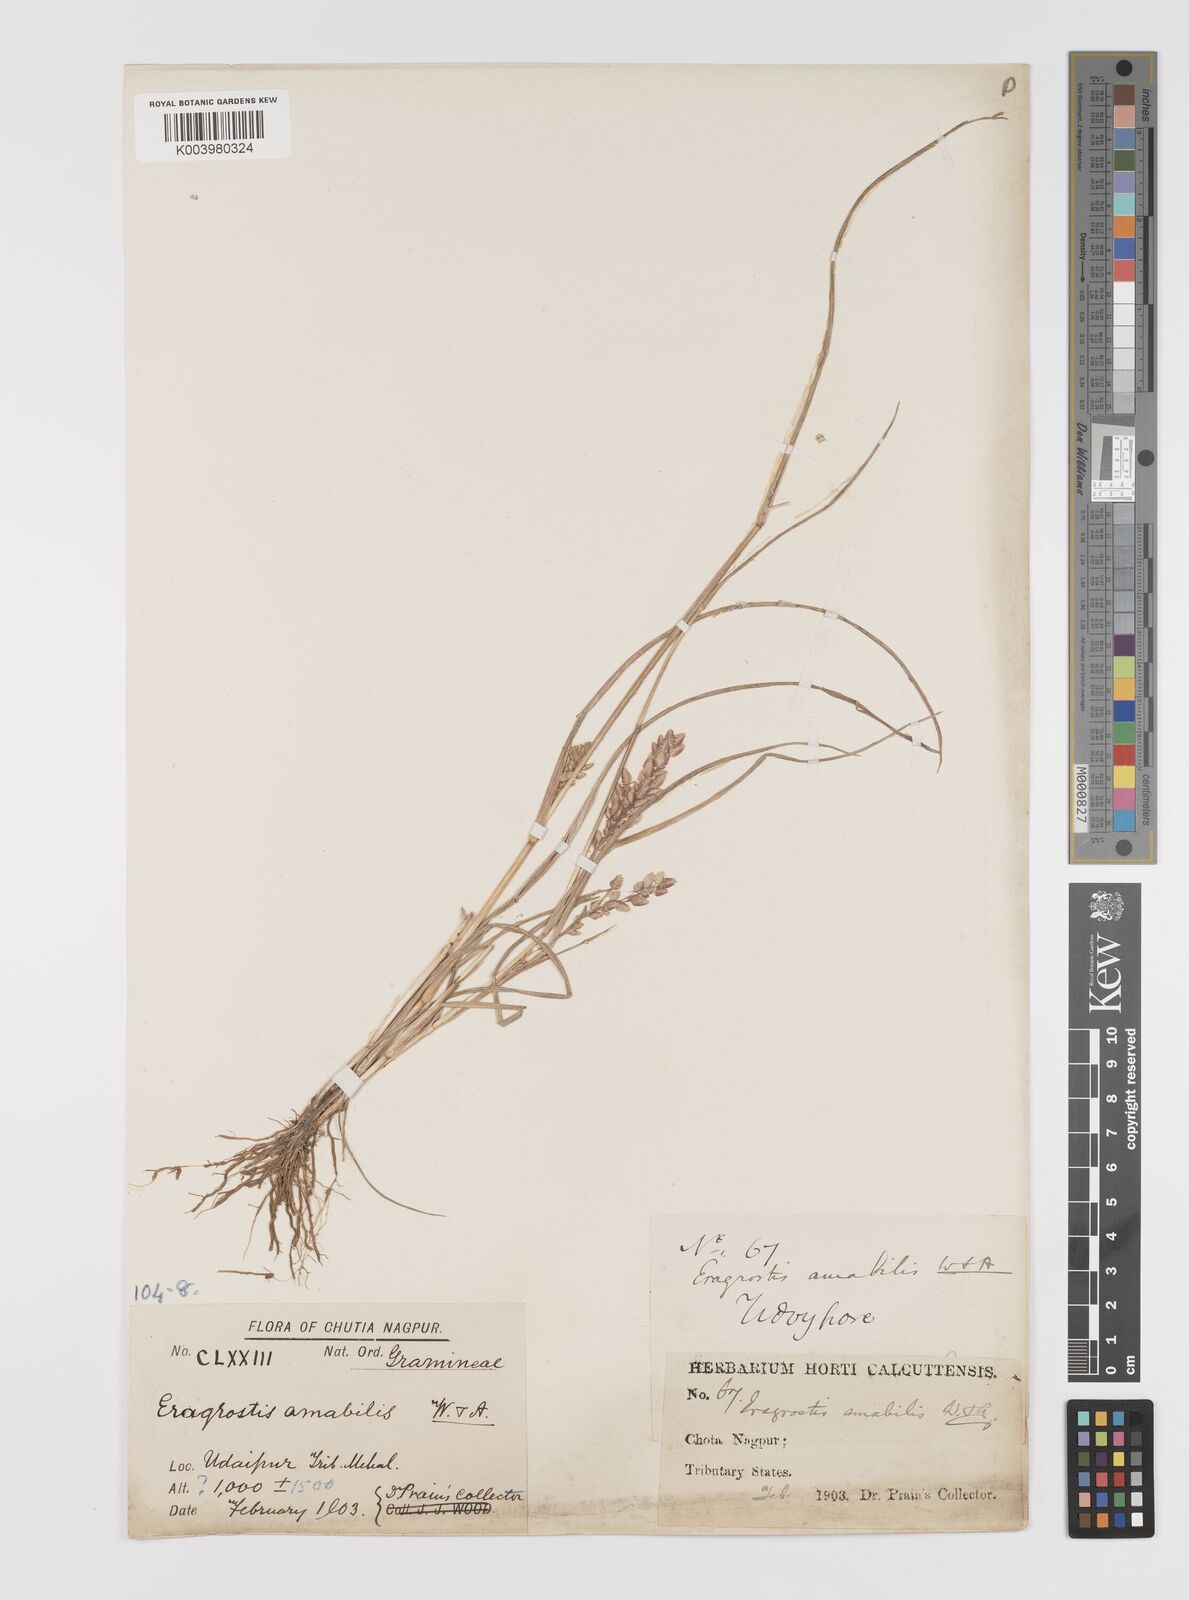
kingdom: Plantae
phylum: Tracheophyta
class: Liliopsida
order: Poales
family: Poaceae
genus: Eragrostis
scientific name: Eragrostis unioloides
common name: Chinese lovegrass
